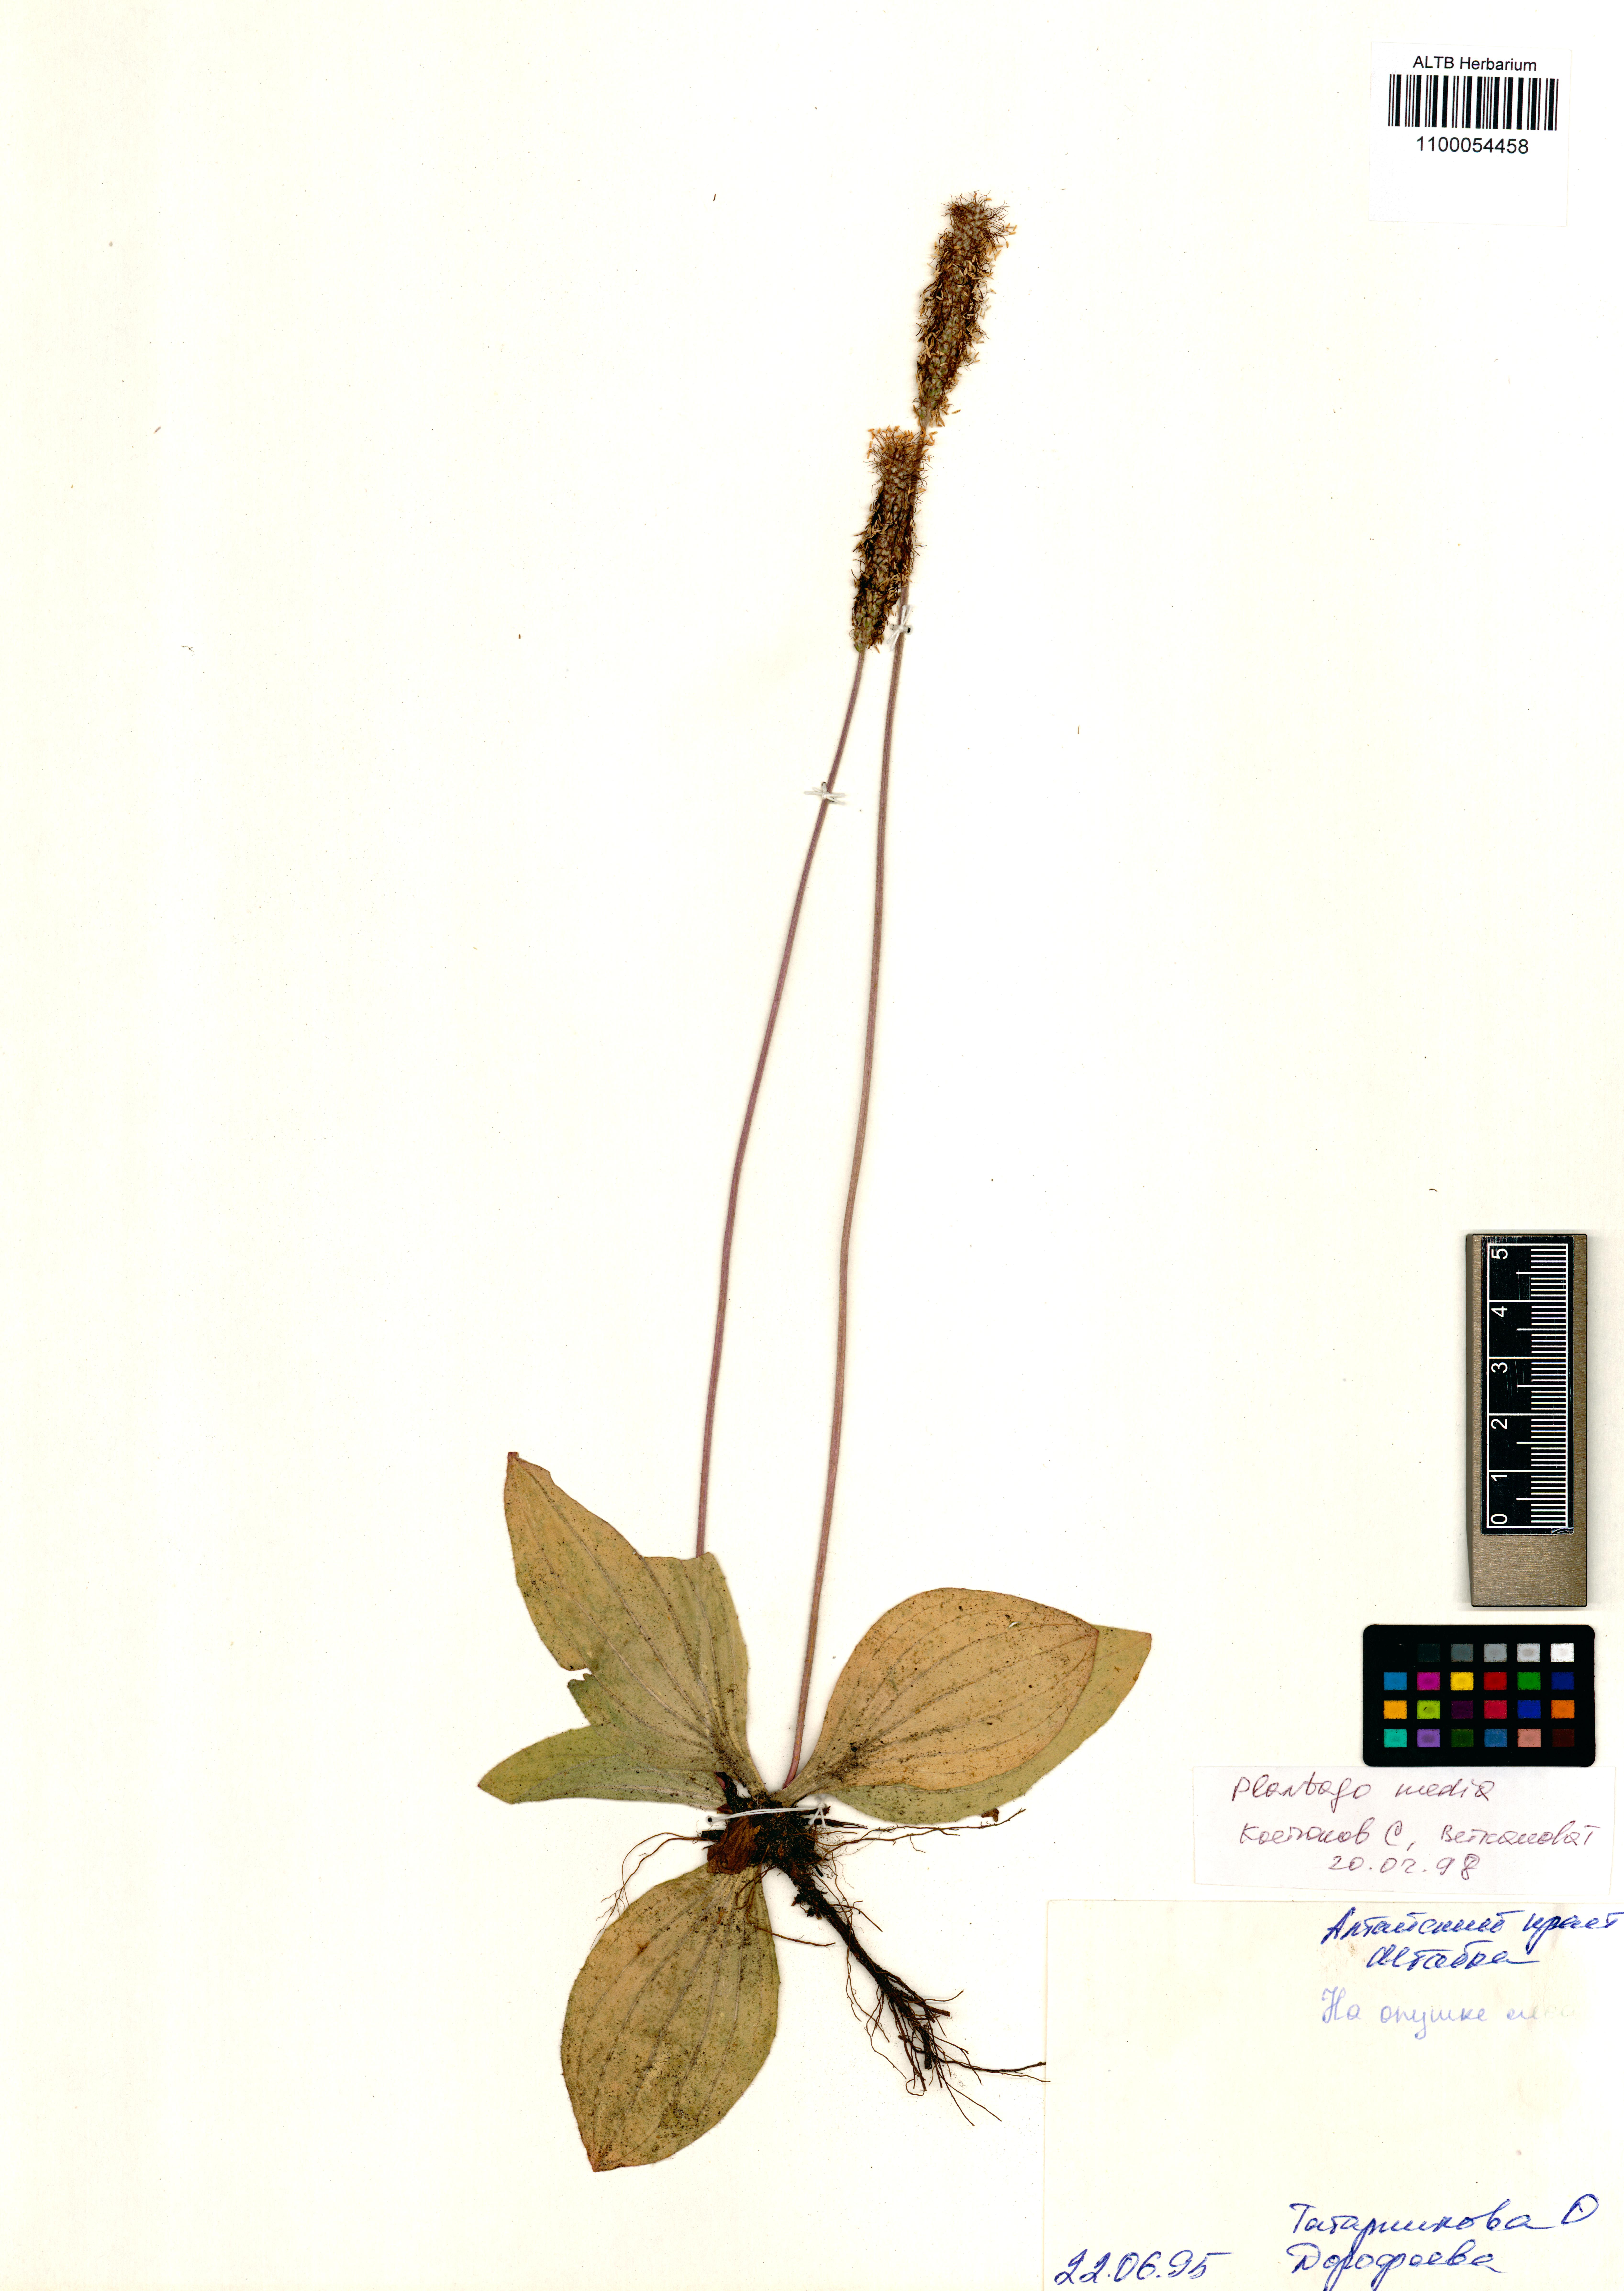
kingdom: Plantae
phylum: Tracheophyta
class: Magnoliopsida
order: Lamiales
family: Plantaginaceae
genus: Plantago
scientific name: Plantago media
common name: Hoary plantain
